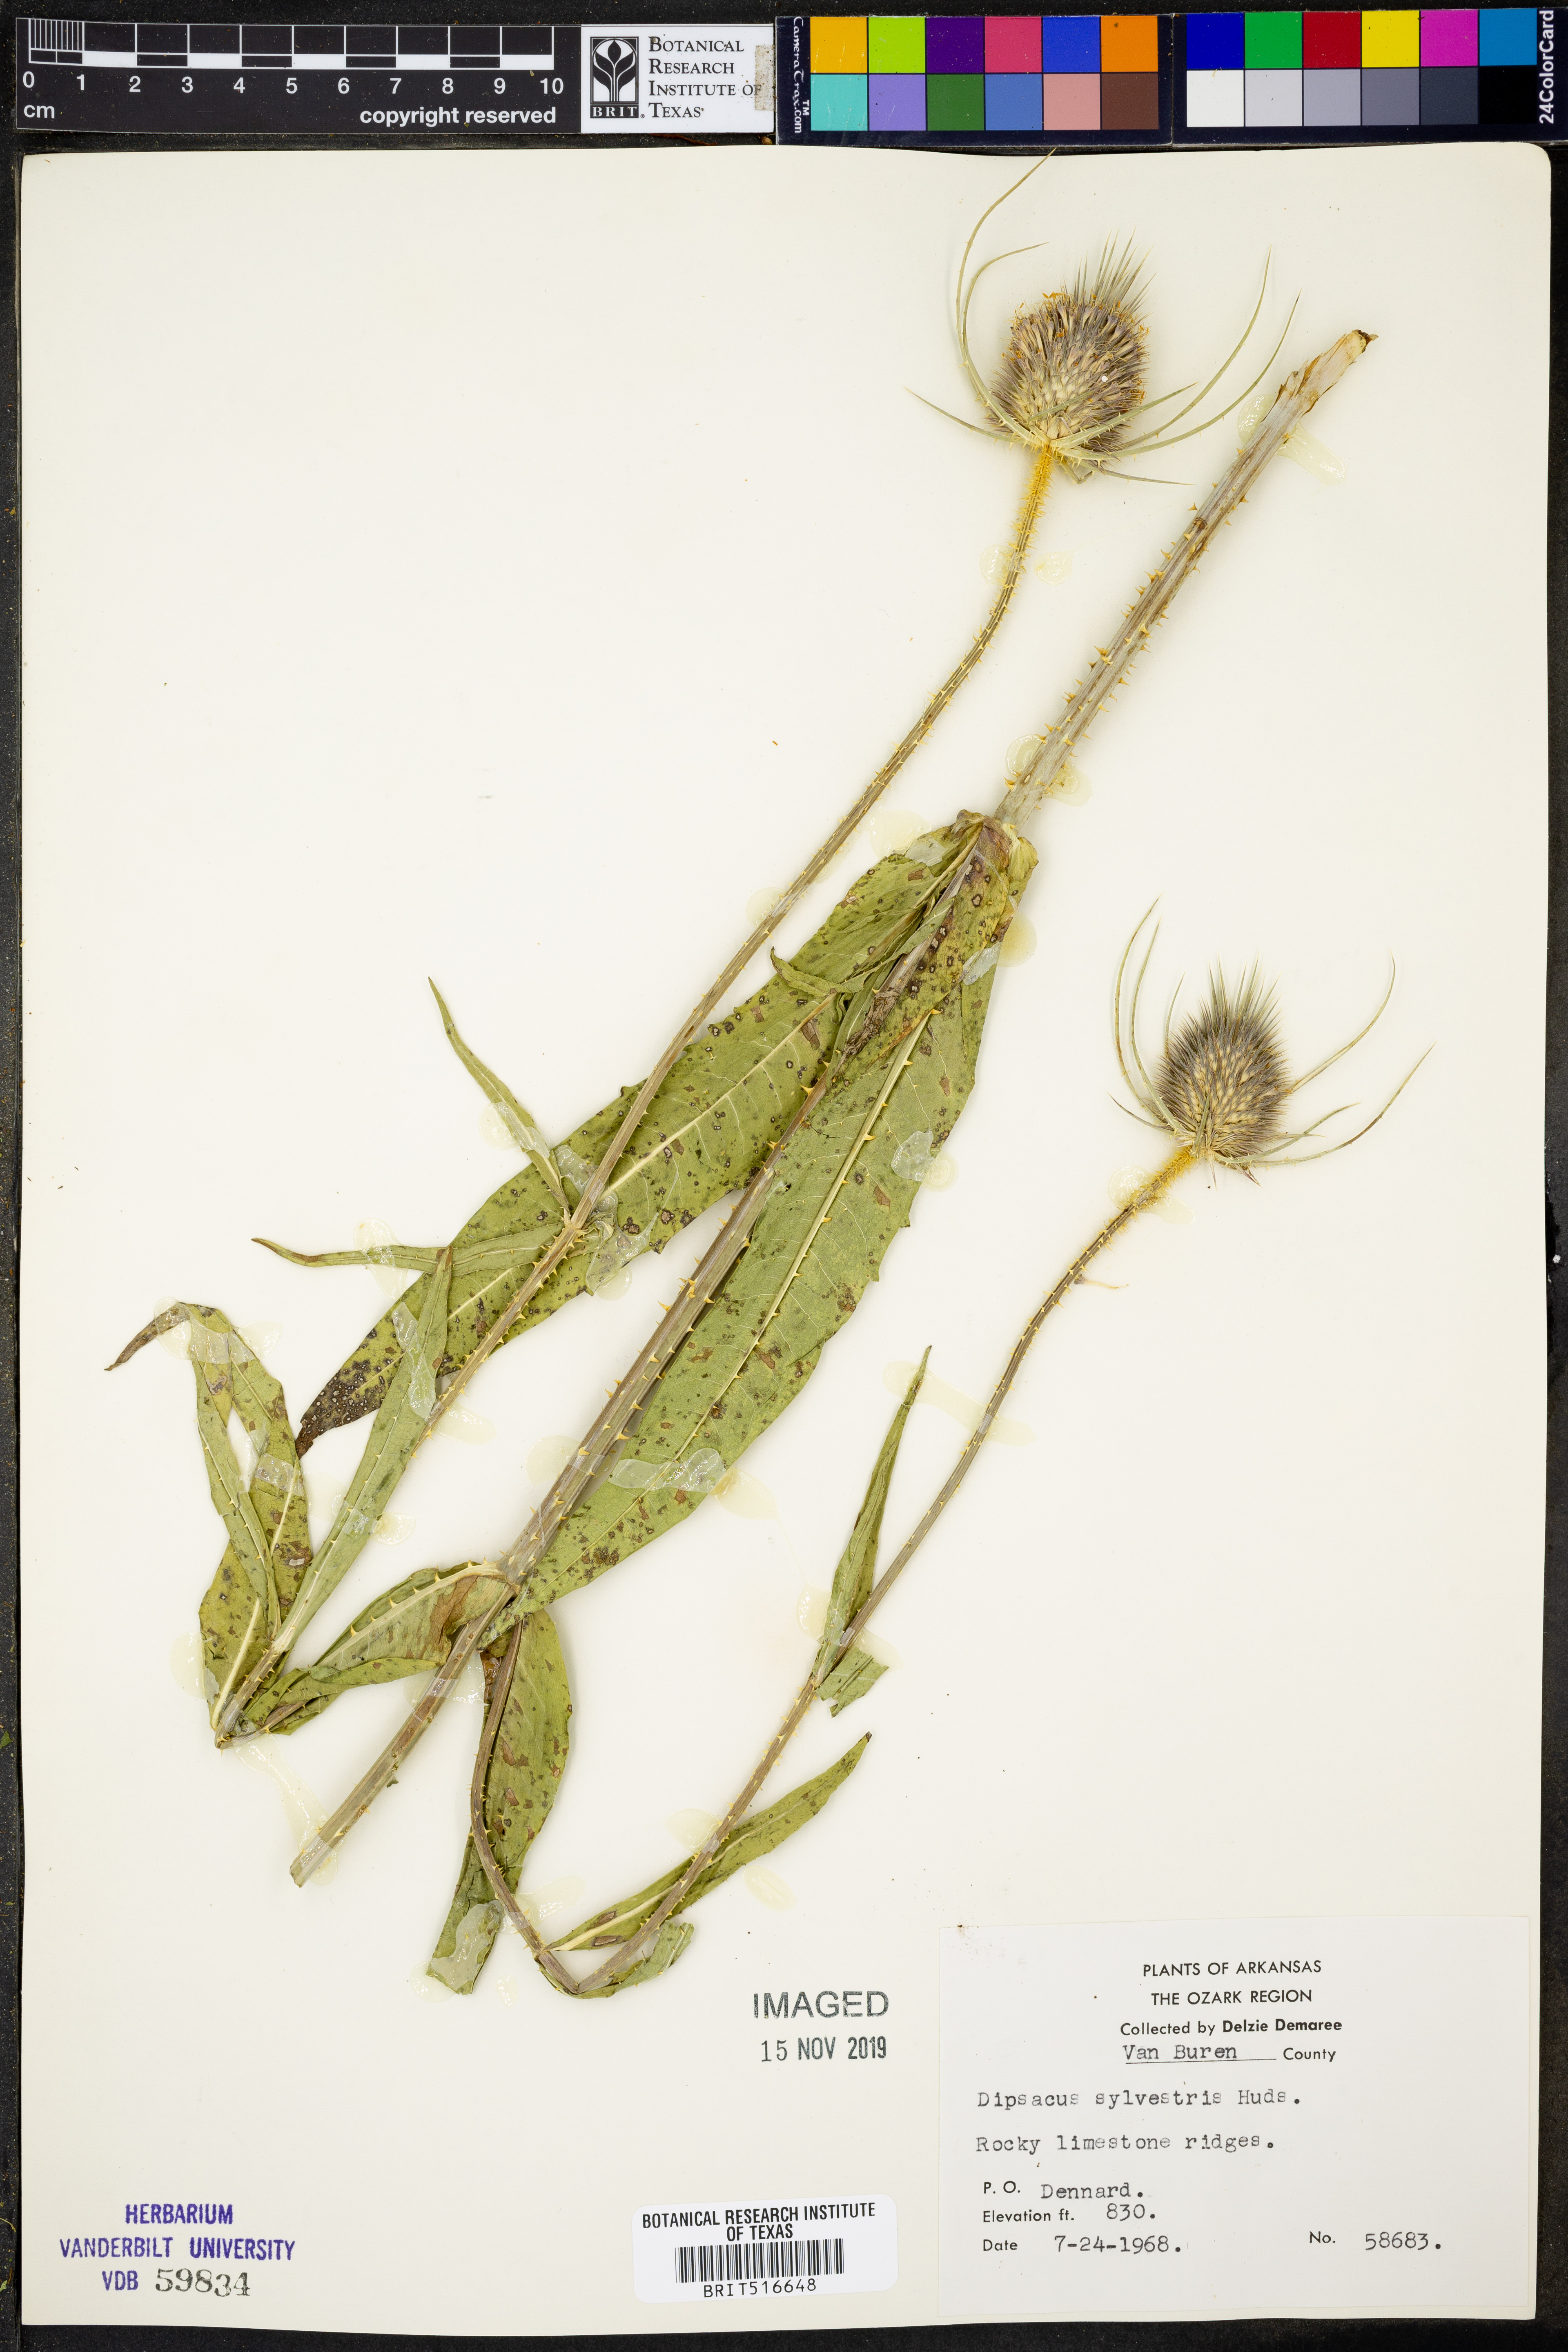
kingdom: Plantae
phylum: Tracheophyta
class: Magnoliopsida
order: Dipsacales
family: Caprifoliaceae
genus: Dipsacus
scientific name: Dipsacus fullonum
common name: Teasel
